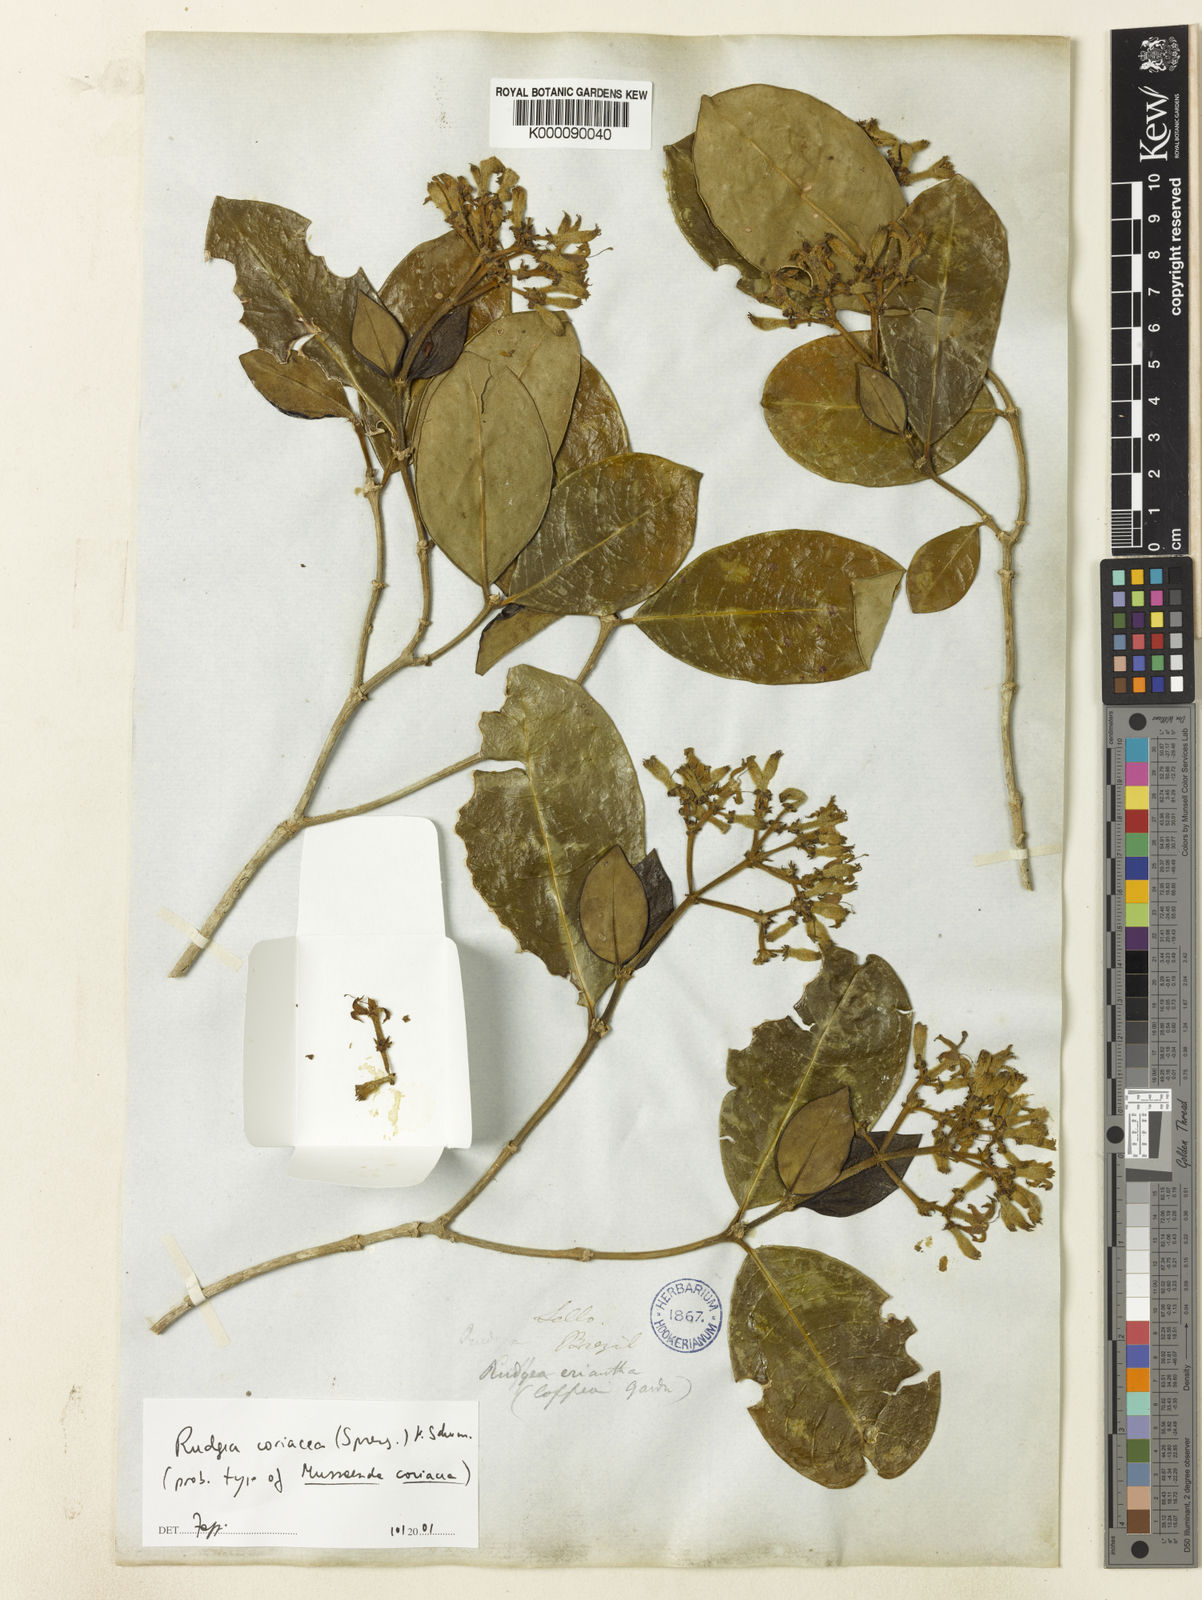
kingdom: Plantae
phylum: Tracheophyta
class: Magnoliopsida
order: Gentianales
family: Rubiaceae
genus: Rudgea
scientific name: Rudgea coriacea
